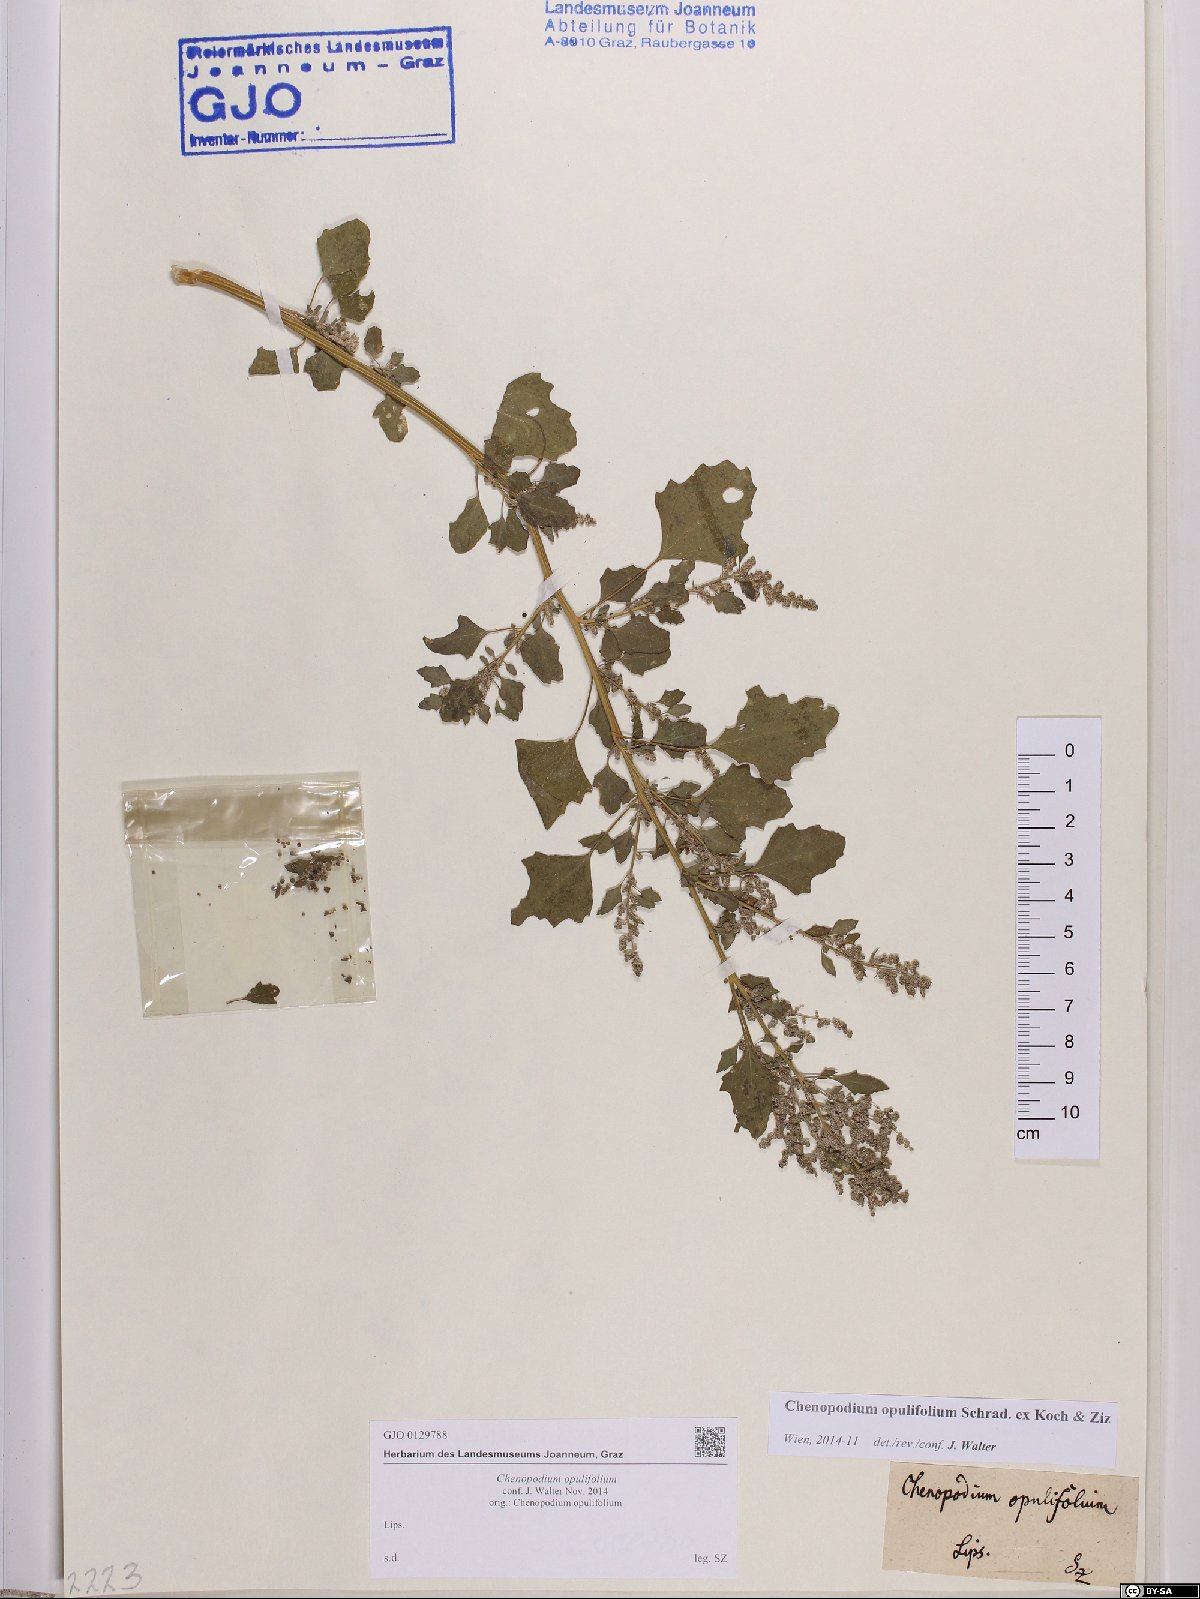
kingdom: Plantae
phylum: Tracheophyta
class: Magnoliopsida
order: Caryophyllales
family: Amaranthaceae
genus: Chenopodium
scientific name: Chenopodium opulifolium
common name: Grey goosefoot
